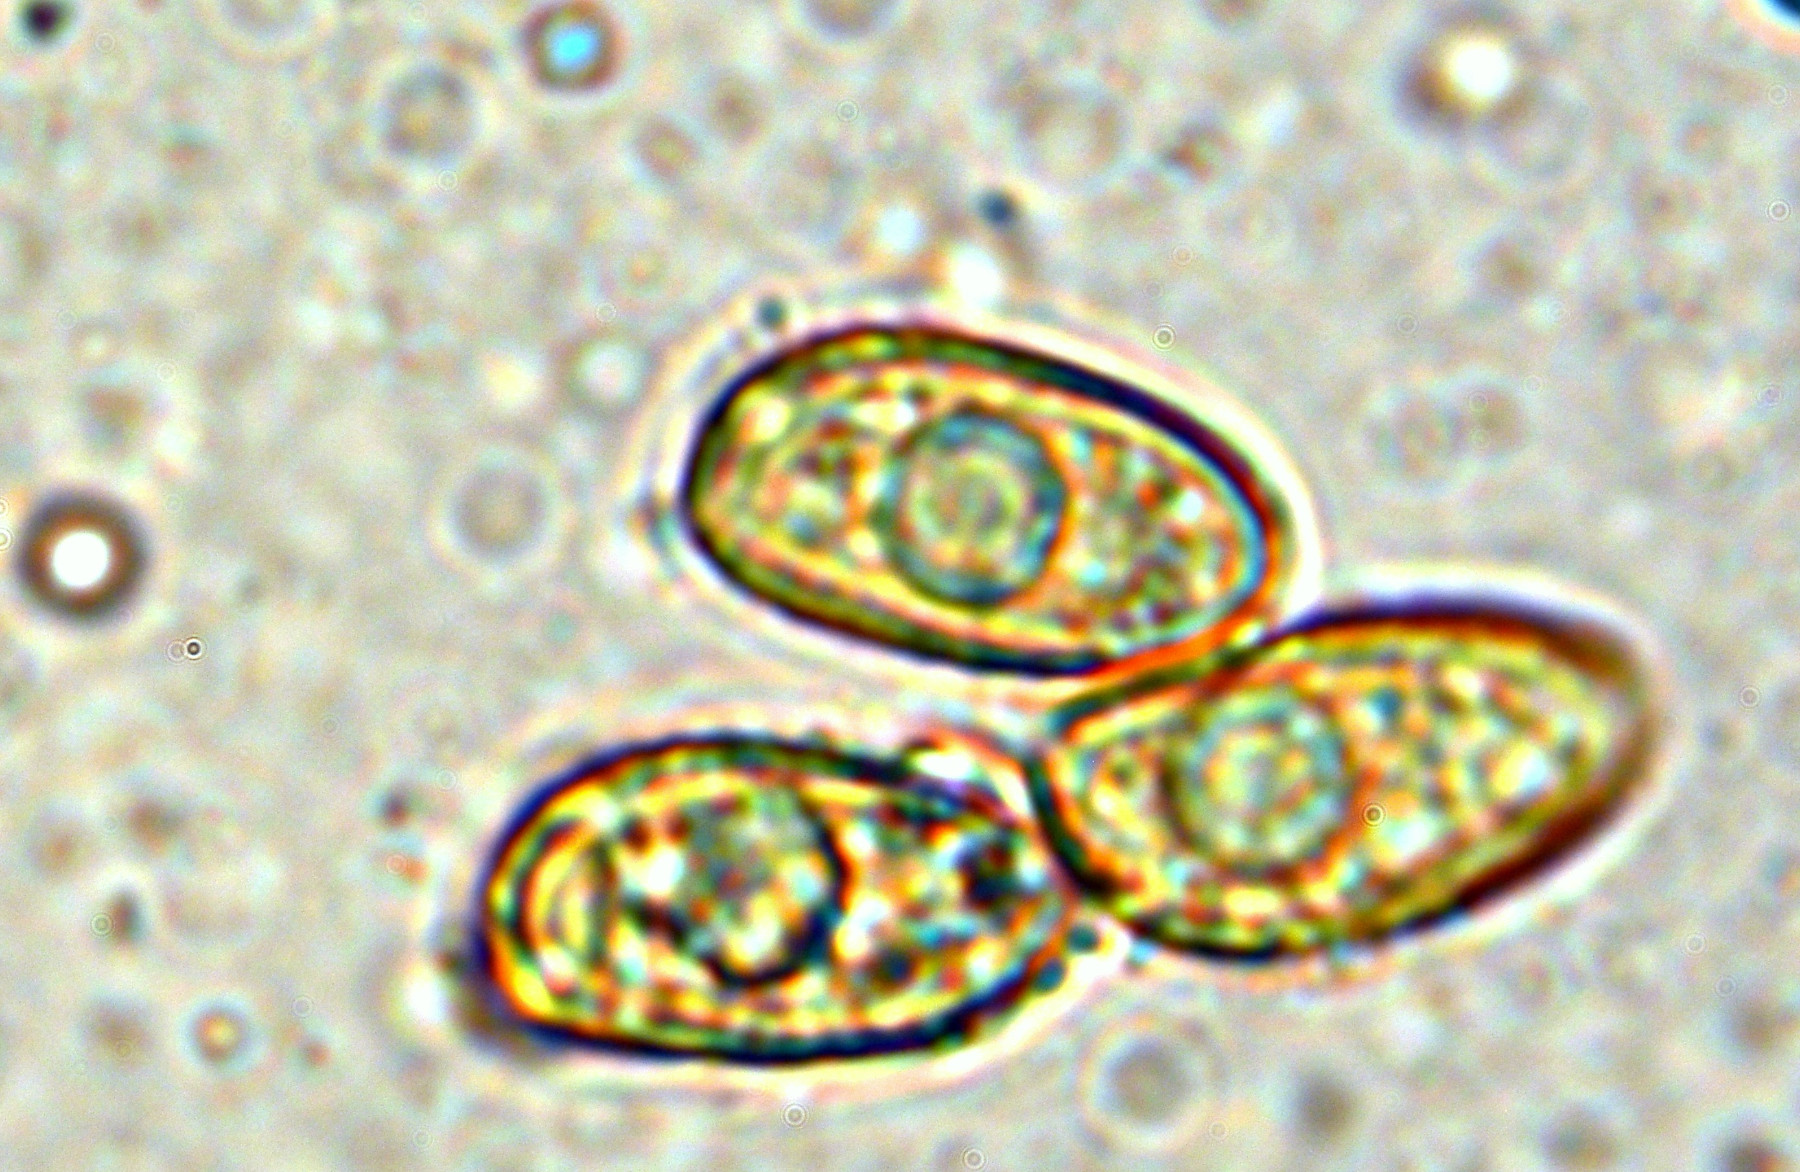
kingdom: Fungi
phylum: Basidiomycota
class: Agaricomycetes
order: Agaricales
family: Hymenogastraceae
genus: Galerina
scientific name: Galerina clavata
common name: kær-hjelmhat
